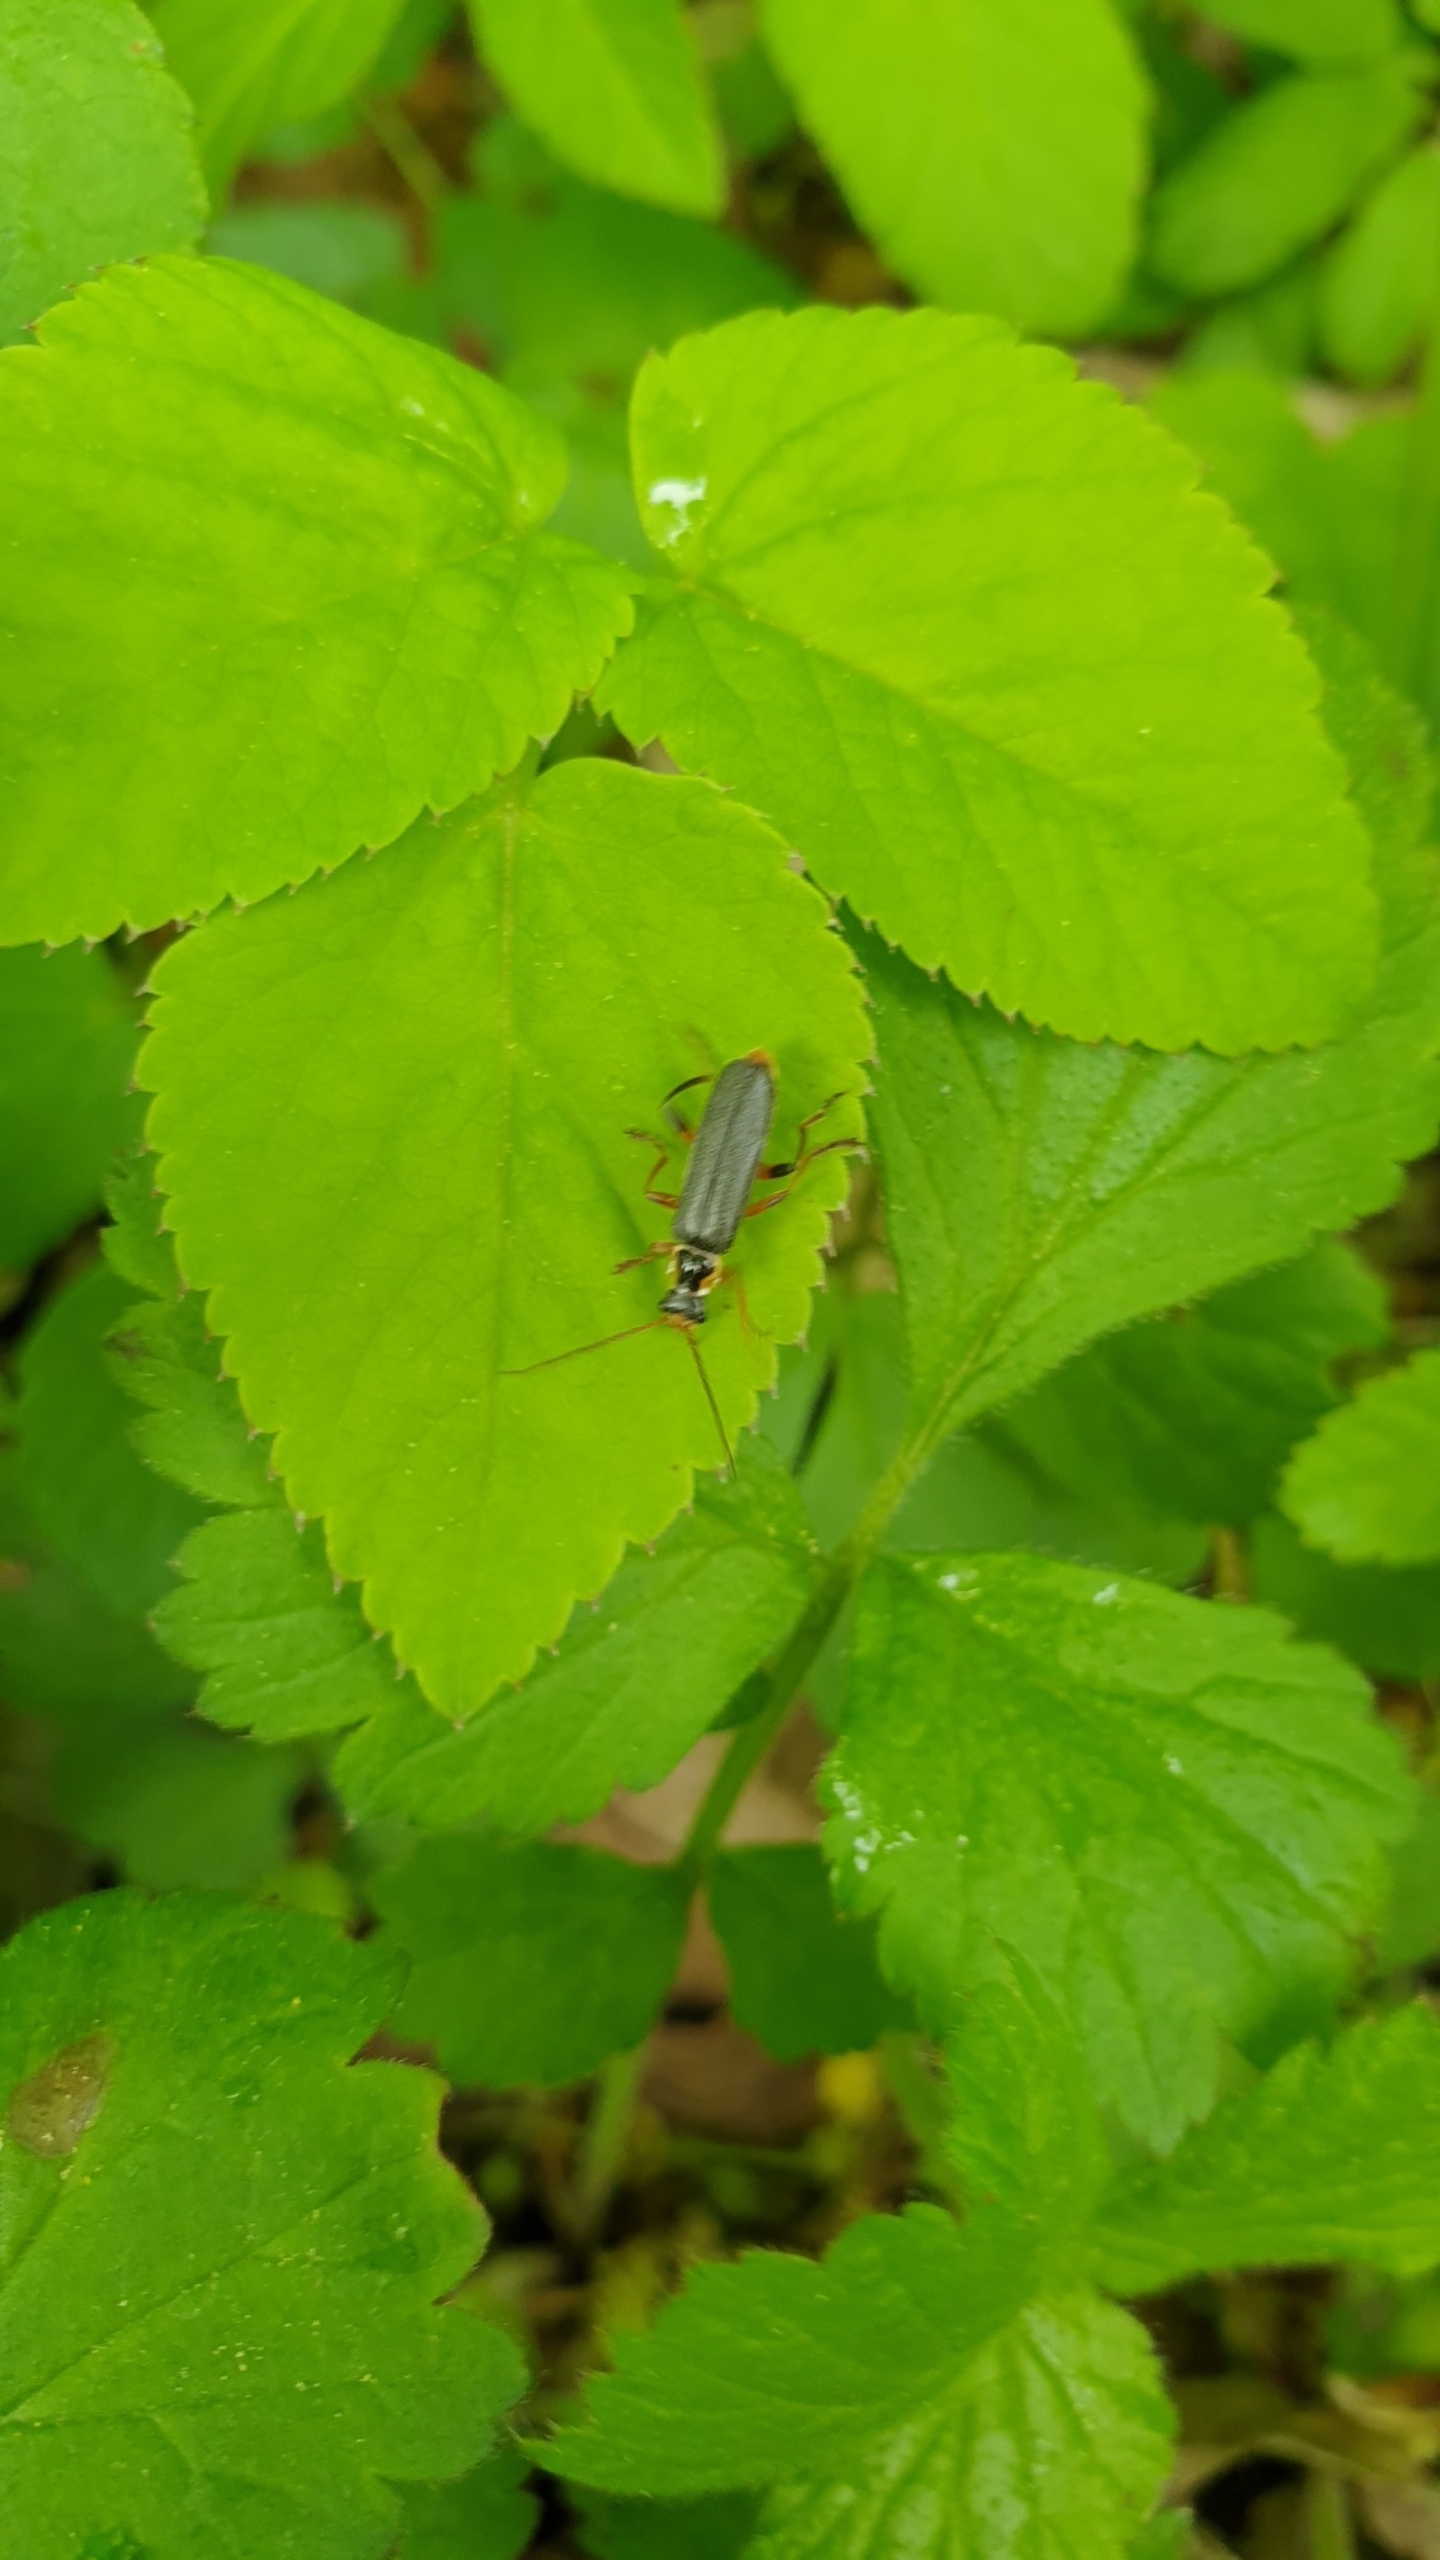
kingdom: Animalia
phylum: Arthropoda
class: Insecta
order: Coleoptera
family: Cantharidae
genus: Cantharis
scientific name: Cantharis nigricans
